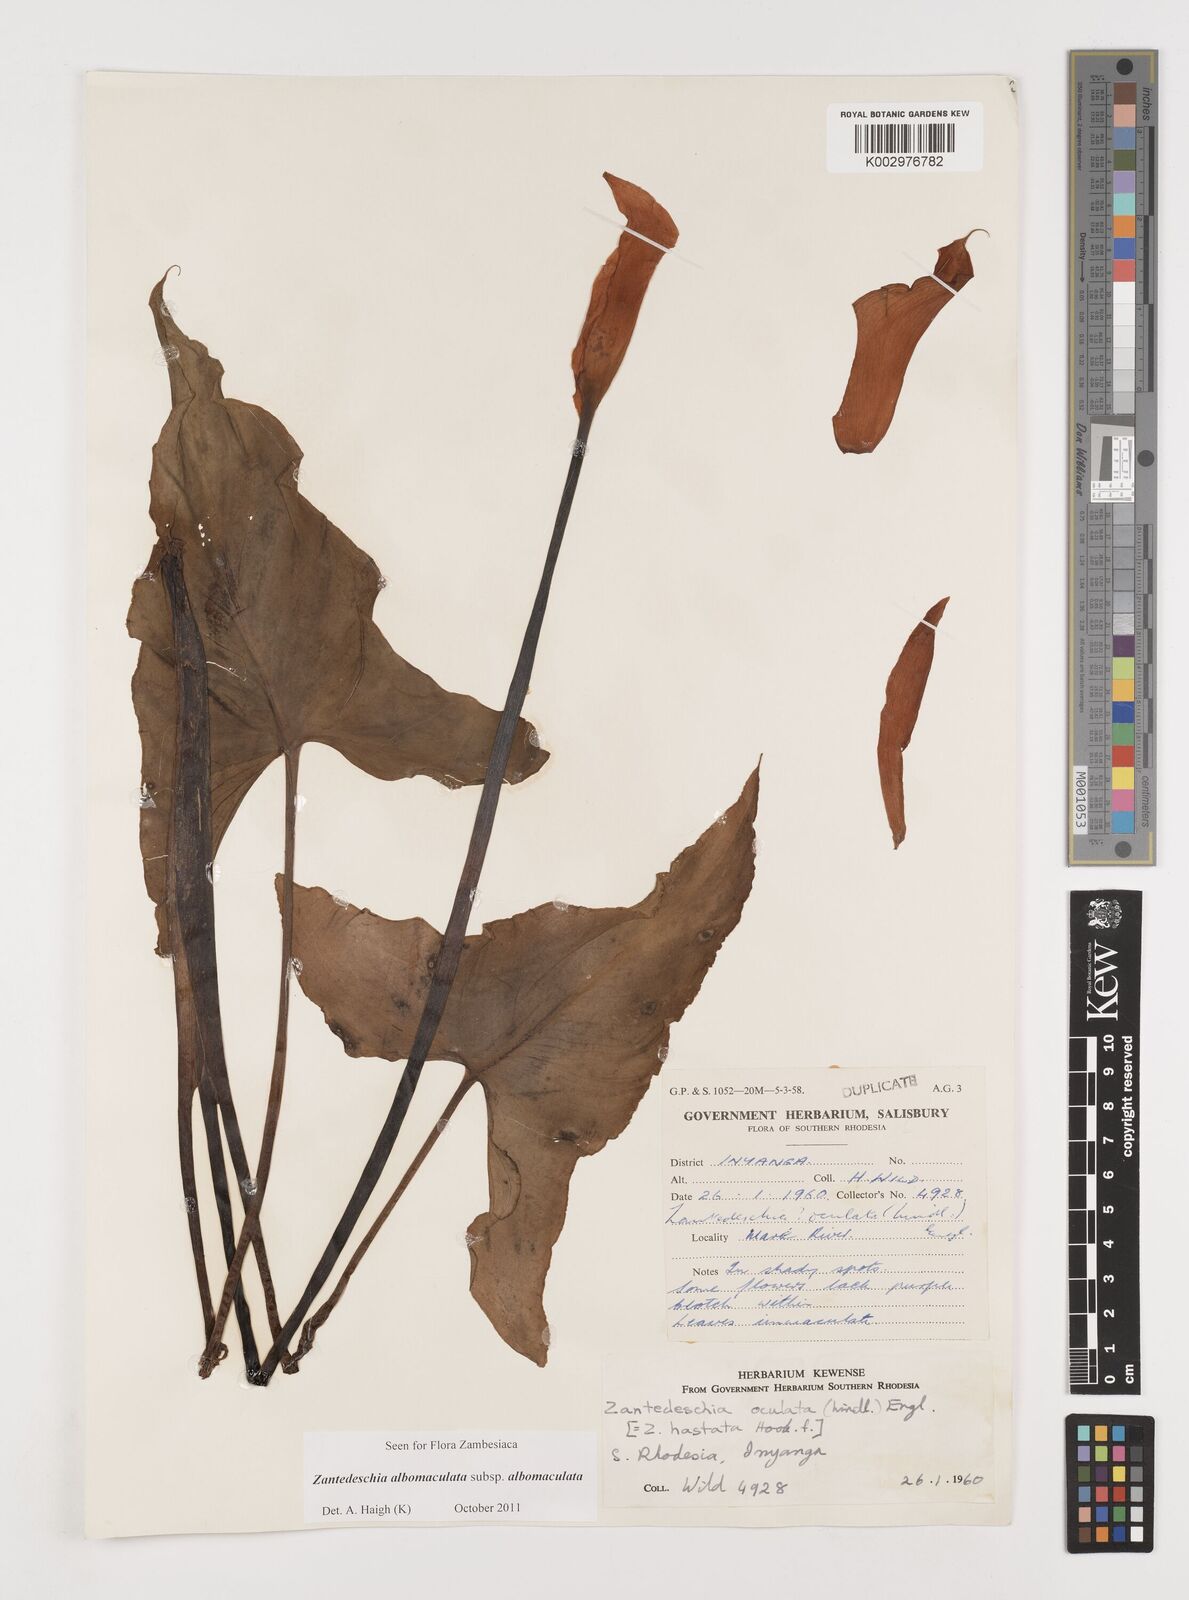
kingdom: Plantae
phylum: Tracheophyta
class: Liliopsida
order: Alismatales
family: Araceae
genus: Zantedeschia
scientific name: Zantedeschia albomaculata
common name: Spotted calla lily
